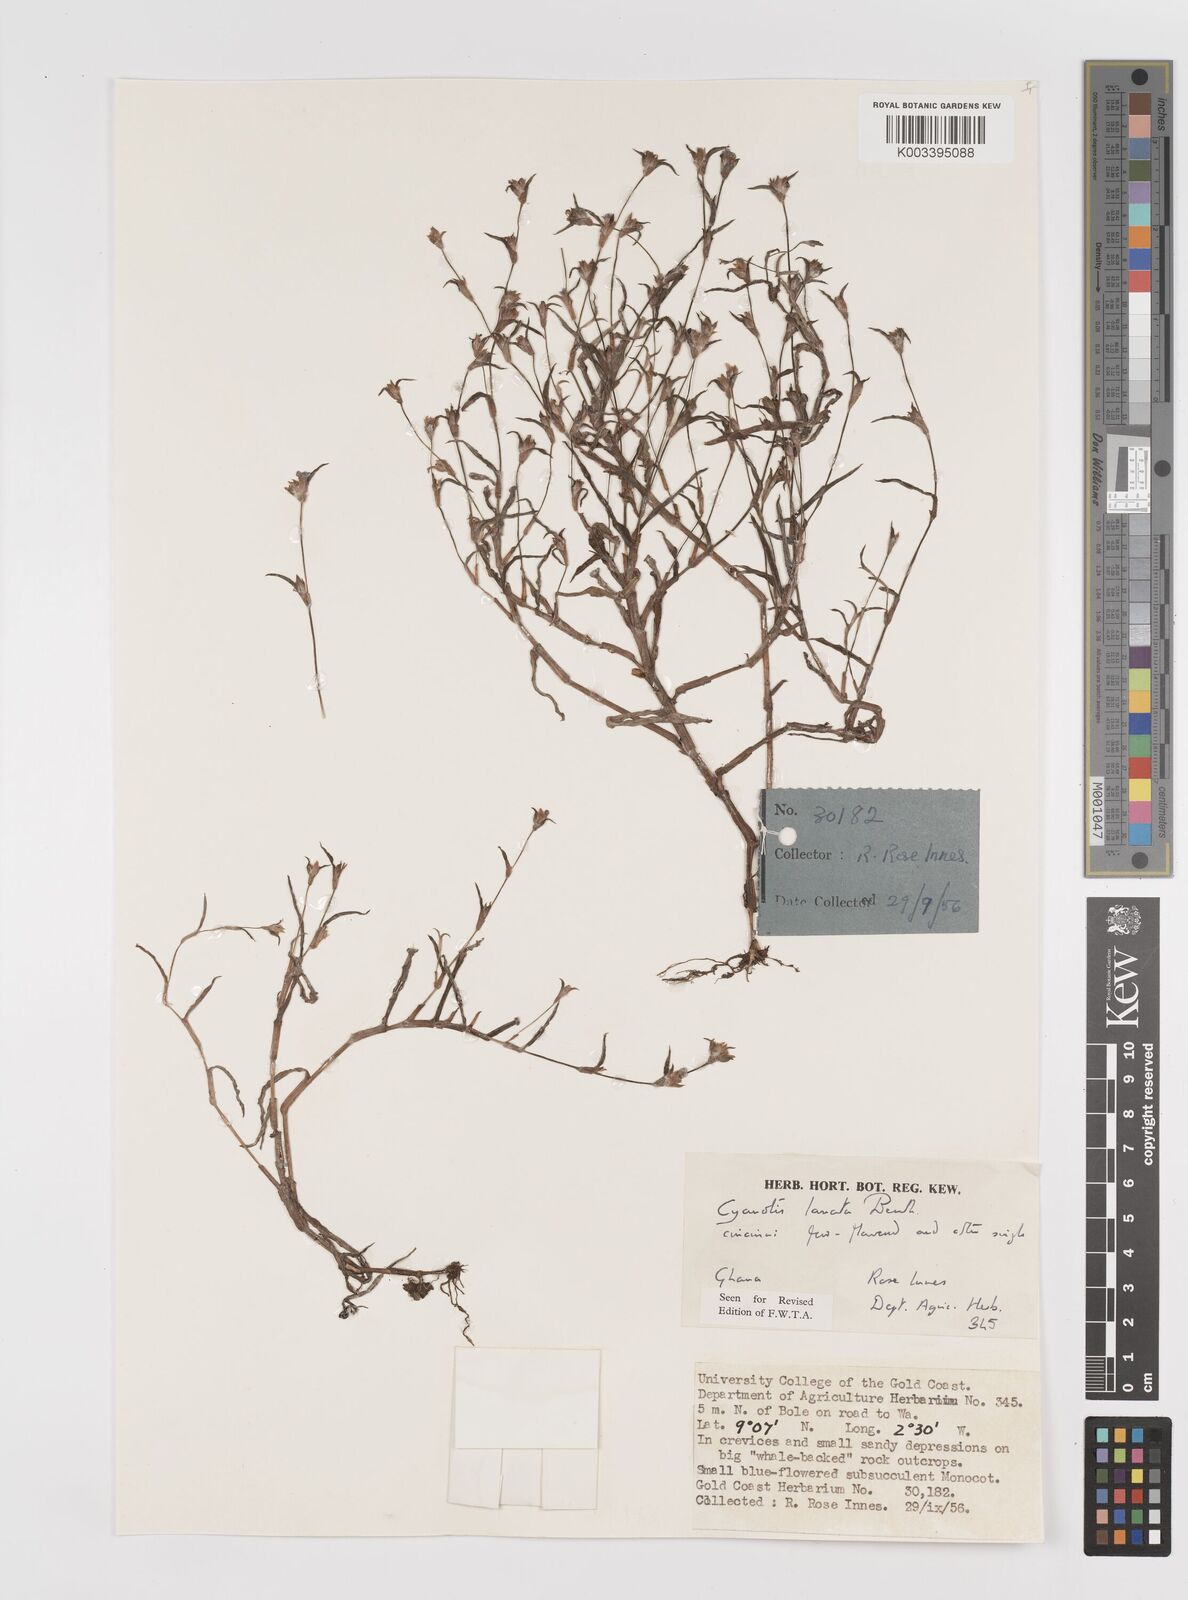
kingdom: Plantae
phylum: Tracheophyta
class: Liliopsida
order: Commelinales
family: Commelinaceae
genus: Cyanotis
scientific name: Cyanotis lanata
